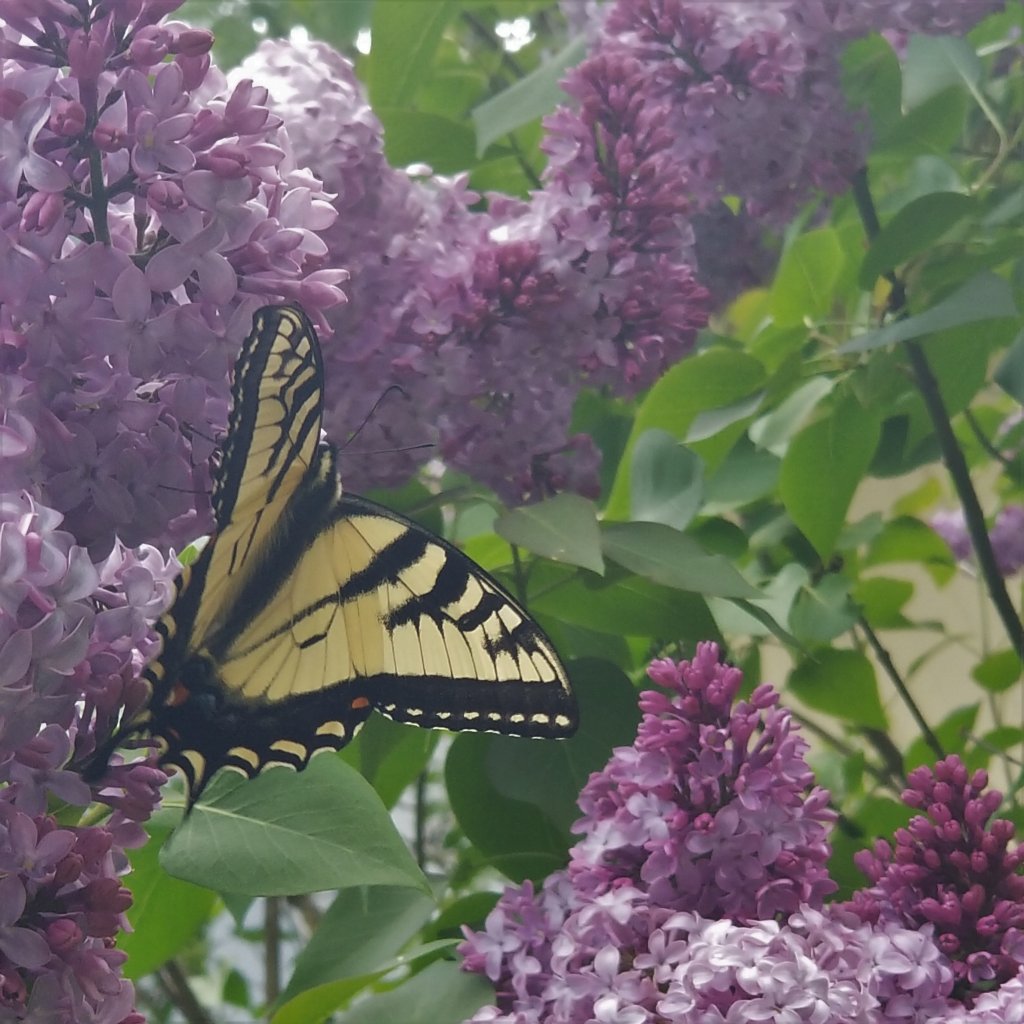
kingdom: Animalia
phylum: Arthropoda
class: Insecta
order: Lepidoptera
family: Papilionidae
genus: Pterourus
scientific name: Pterourus canadensis
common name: Canadian Tiger Swallowtail
